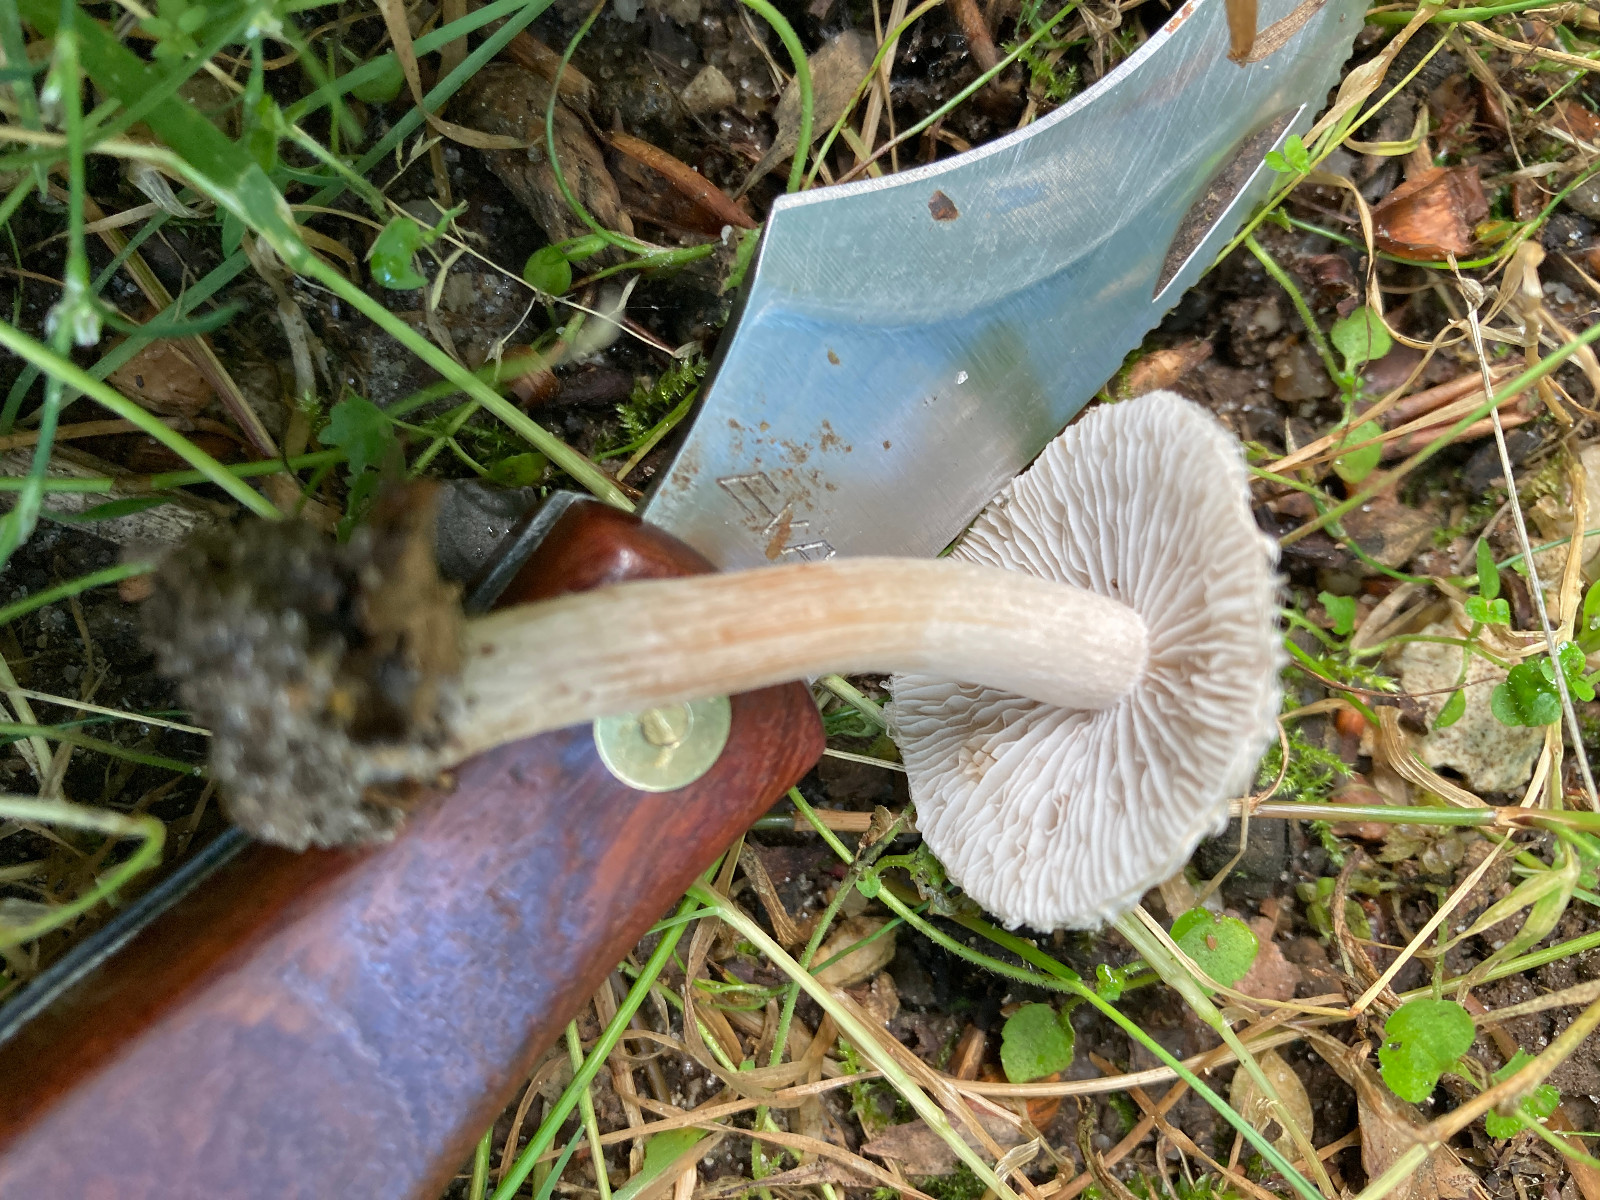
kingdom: Fungi
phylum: Basidiomycota
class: Agaricomycetes
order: Agaricales
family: Inocybaceae
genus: Inocybe
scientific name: Inocybe curvipes
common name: plæne-trævlhat
